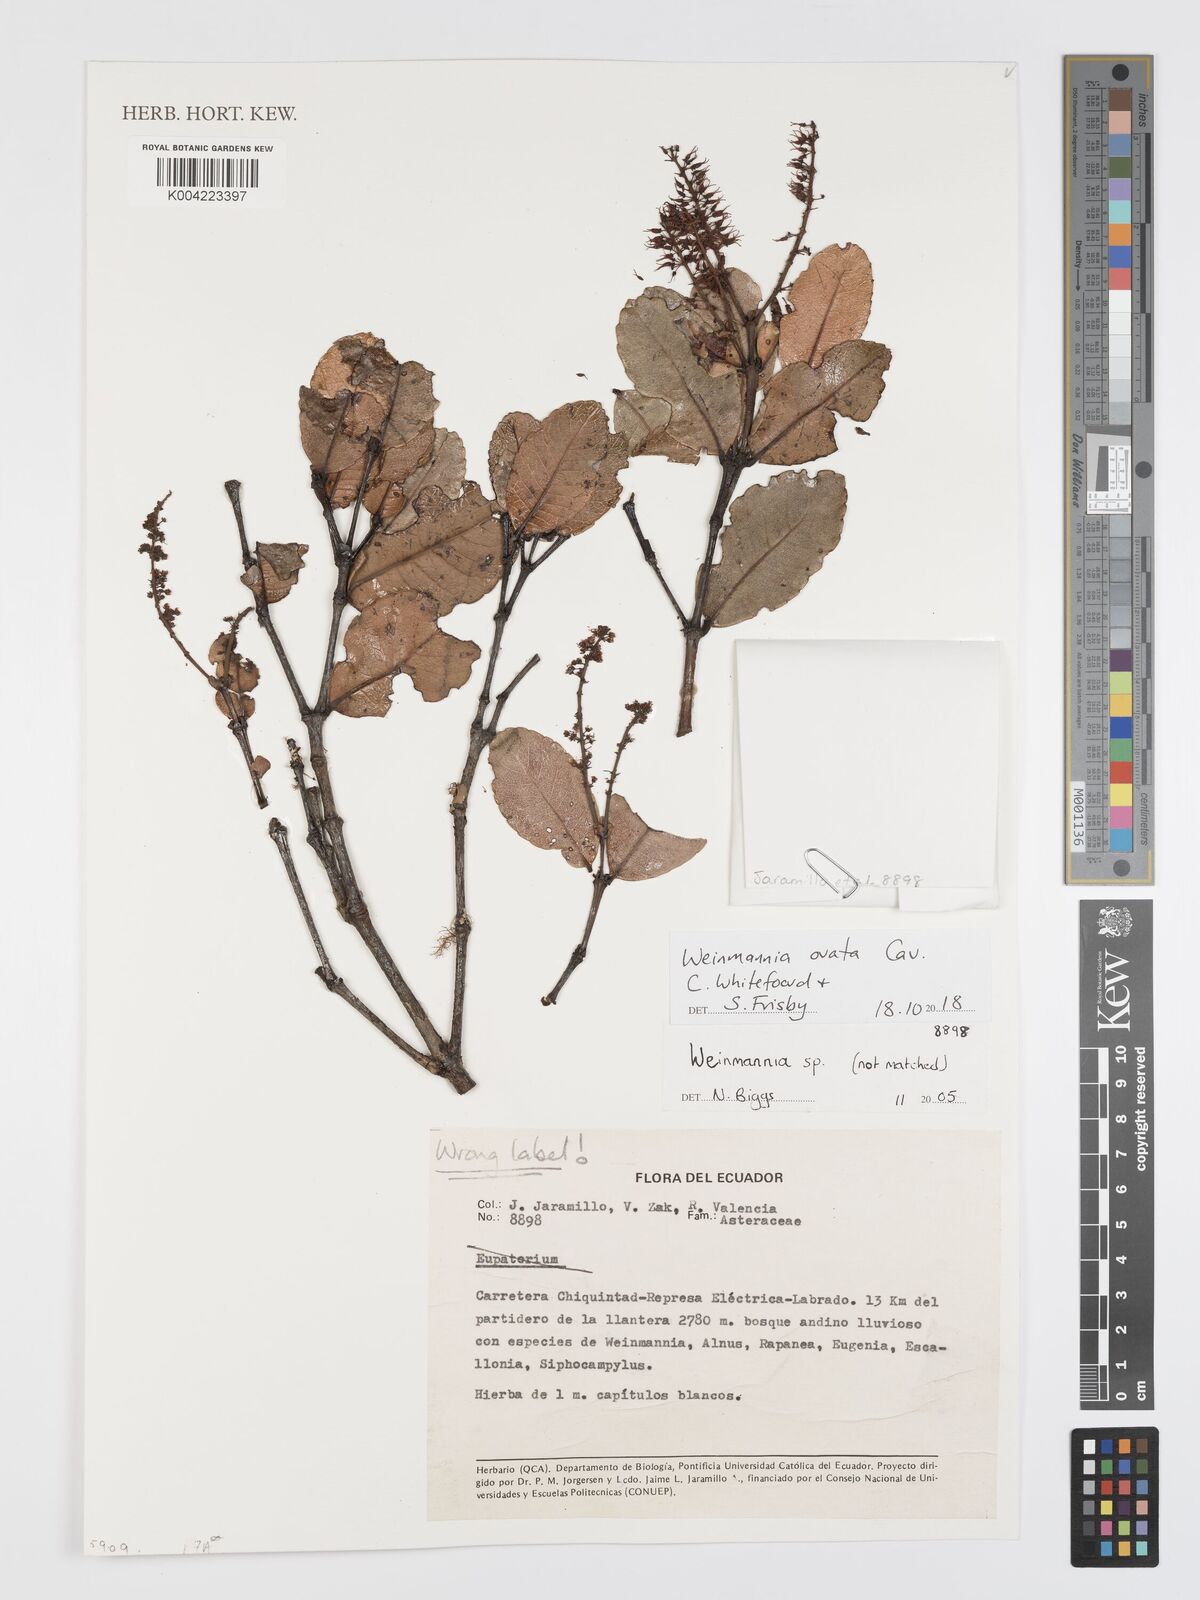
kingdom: Plantae
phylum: Tracheophyta
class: Magnoliopsida
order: Oxalidales
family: Cunoniaceae
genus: Weinmannia
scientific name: Weinmannia ovata
